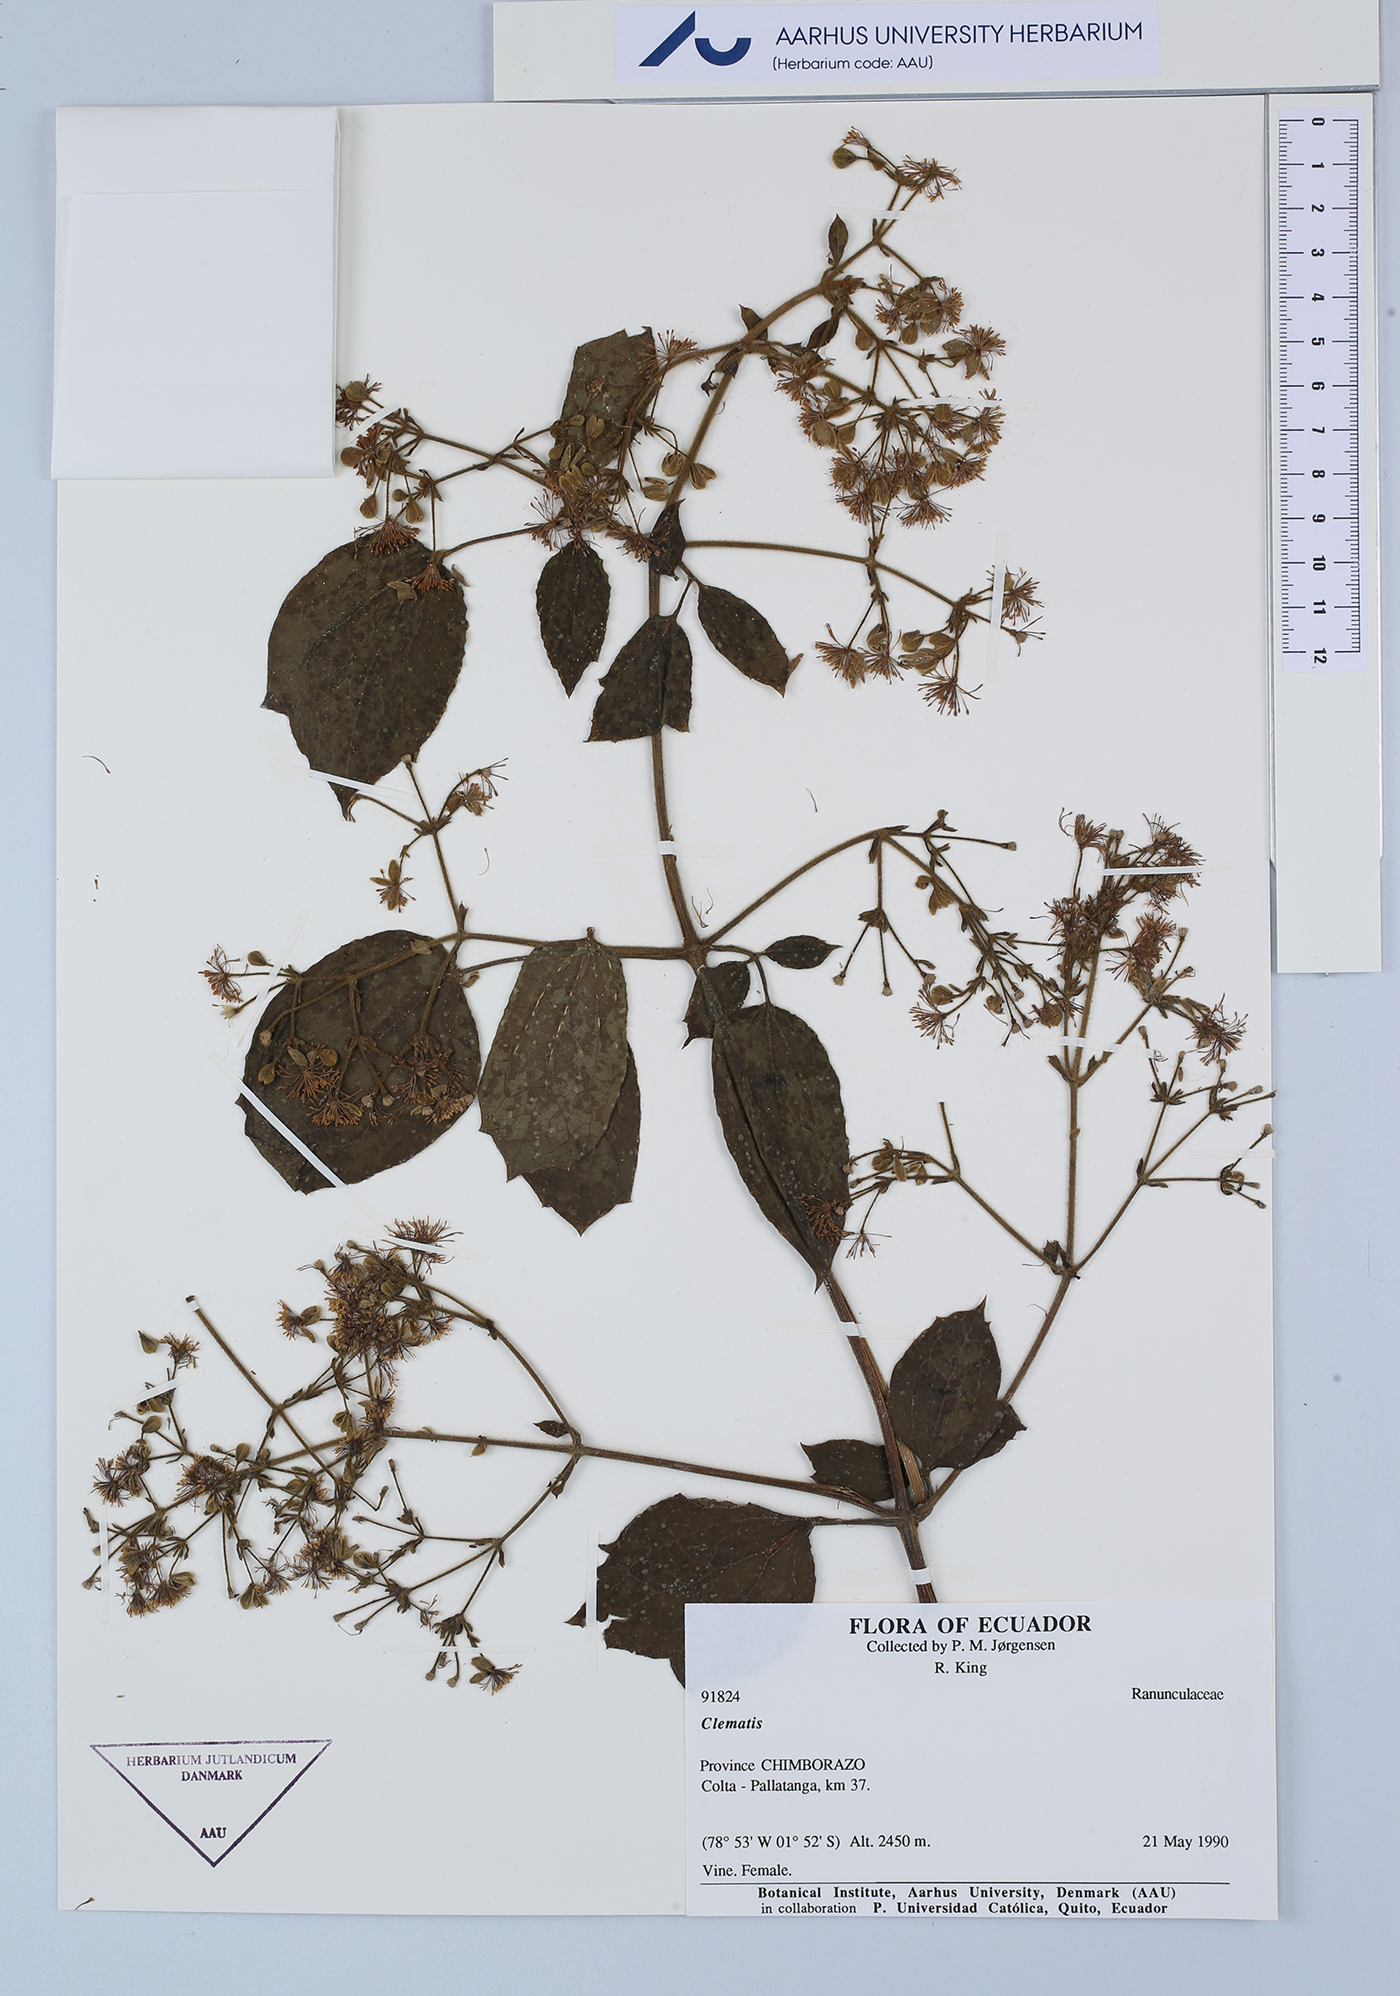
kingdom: Plantae
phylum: Tracheophyta
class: Magnoliopsida
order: Ranunculales
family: Ranunculaceae
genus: Clematis
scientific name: Clematis
